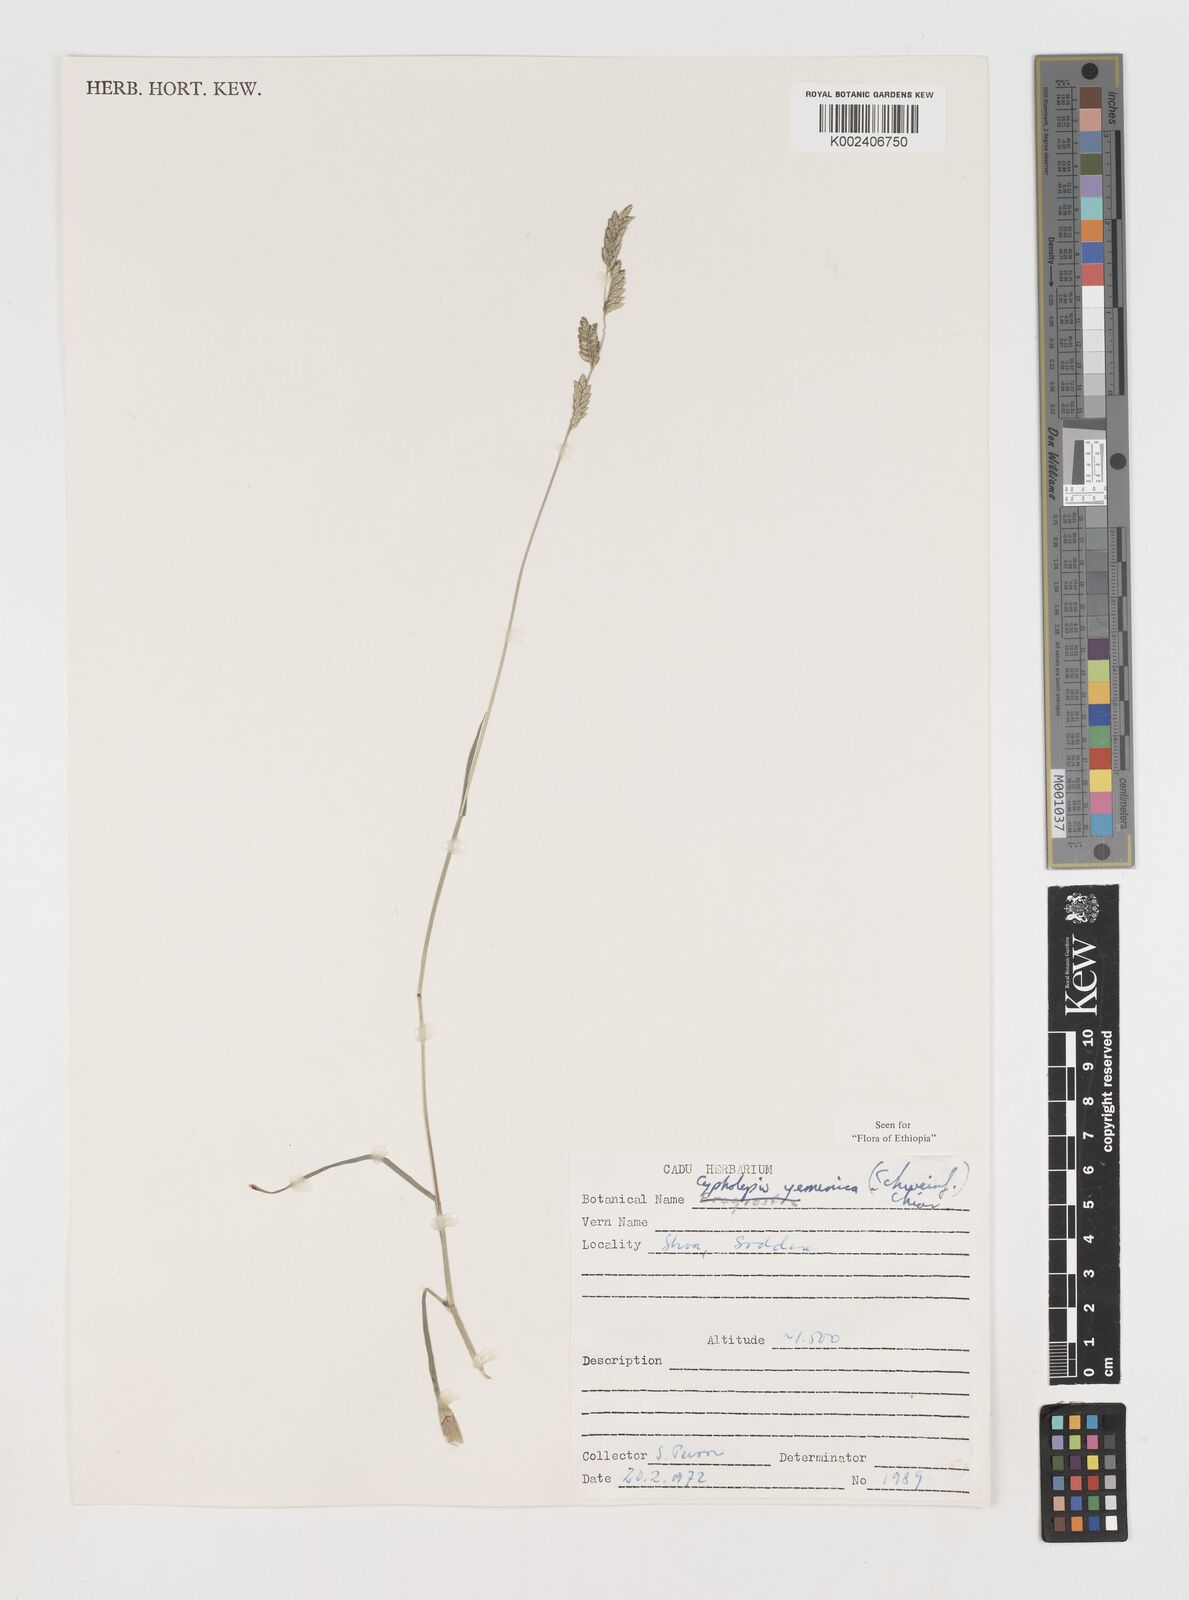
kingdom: Plantae
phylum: Tracheophyta
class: Liliopsida
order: Poales
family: Poaceae
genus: Disakisperma
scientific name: Disakisperma yemenicum
